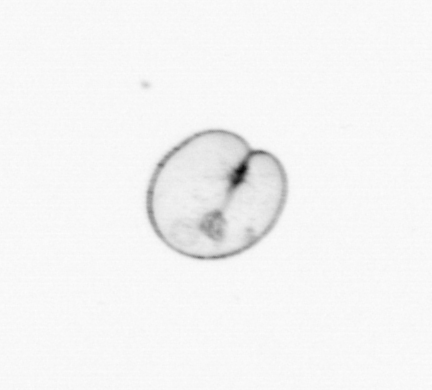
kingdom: Chromista
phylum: Myzozoa
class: Dinophyceae
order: Noctilucales
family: Noctilucaceae
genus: Noctiluca
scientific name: Noctiluca scintillans
